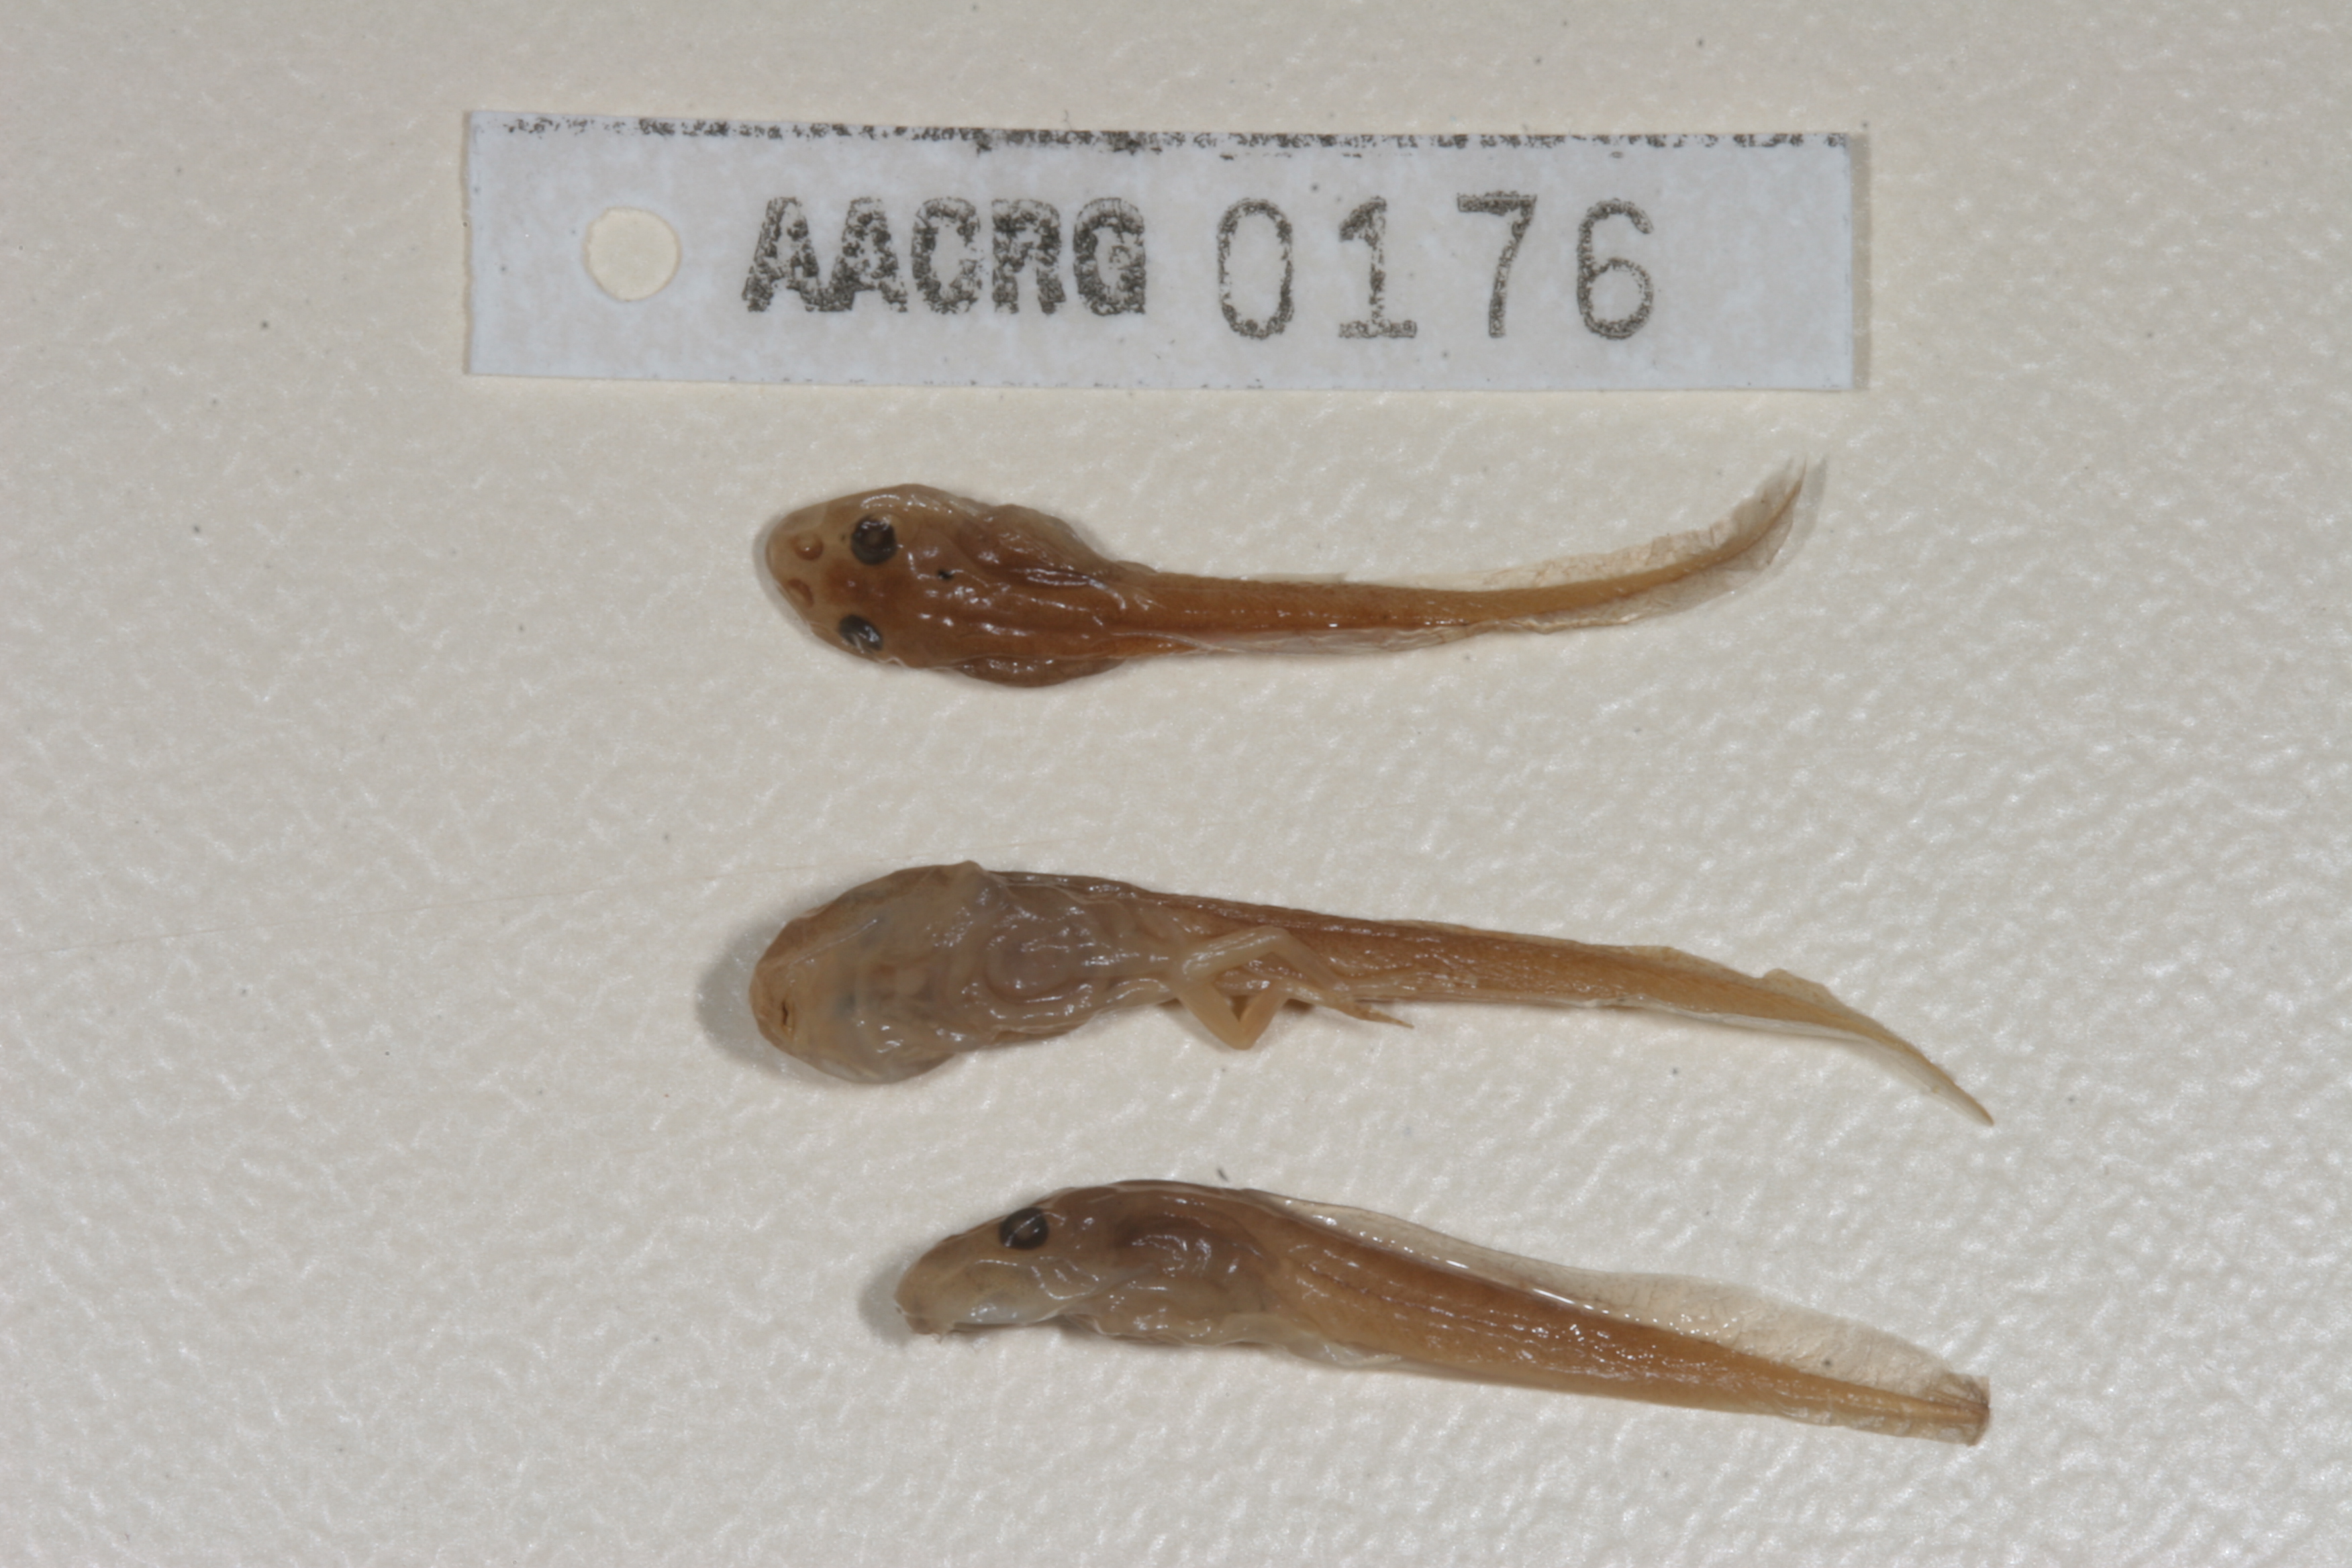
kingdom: Animalia
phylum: Chordata
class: Amphibia
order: Anura
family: Pyxicephalidae
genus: Natalobatrachus
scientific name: Natalobatrachus bonebergi
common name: Natal diving frog
